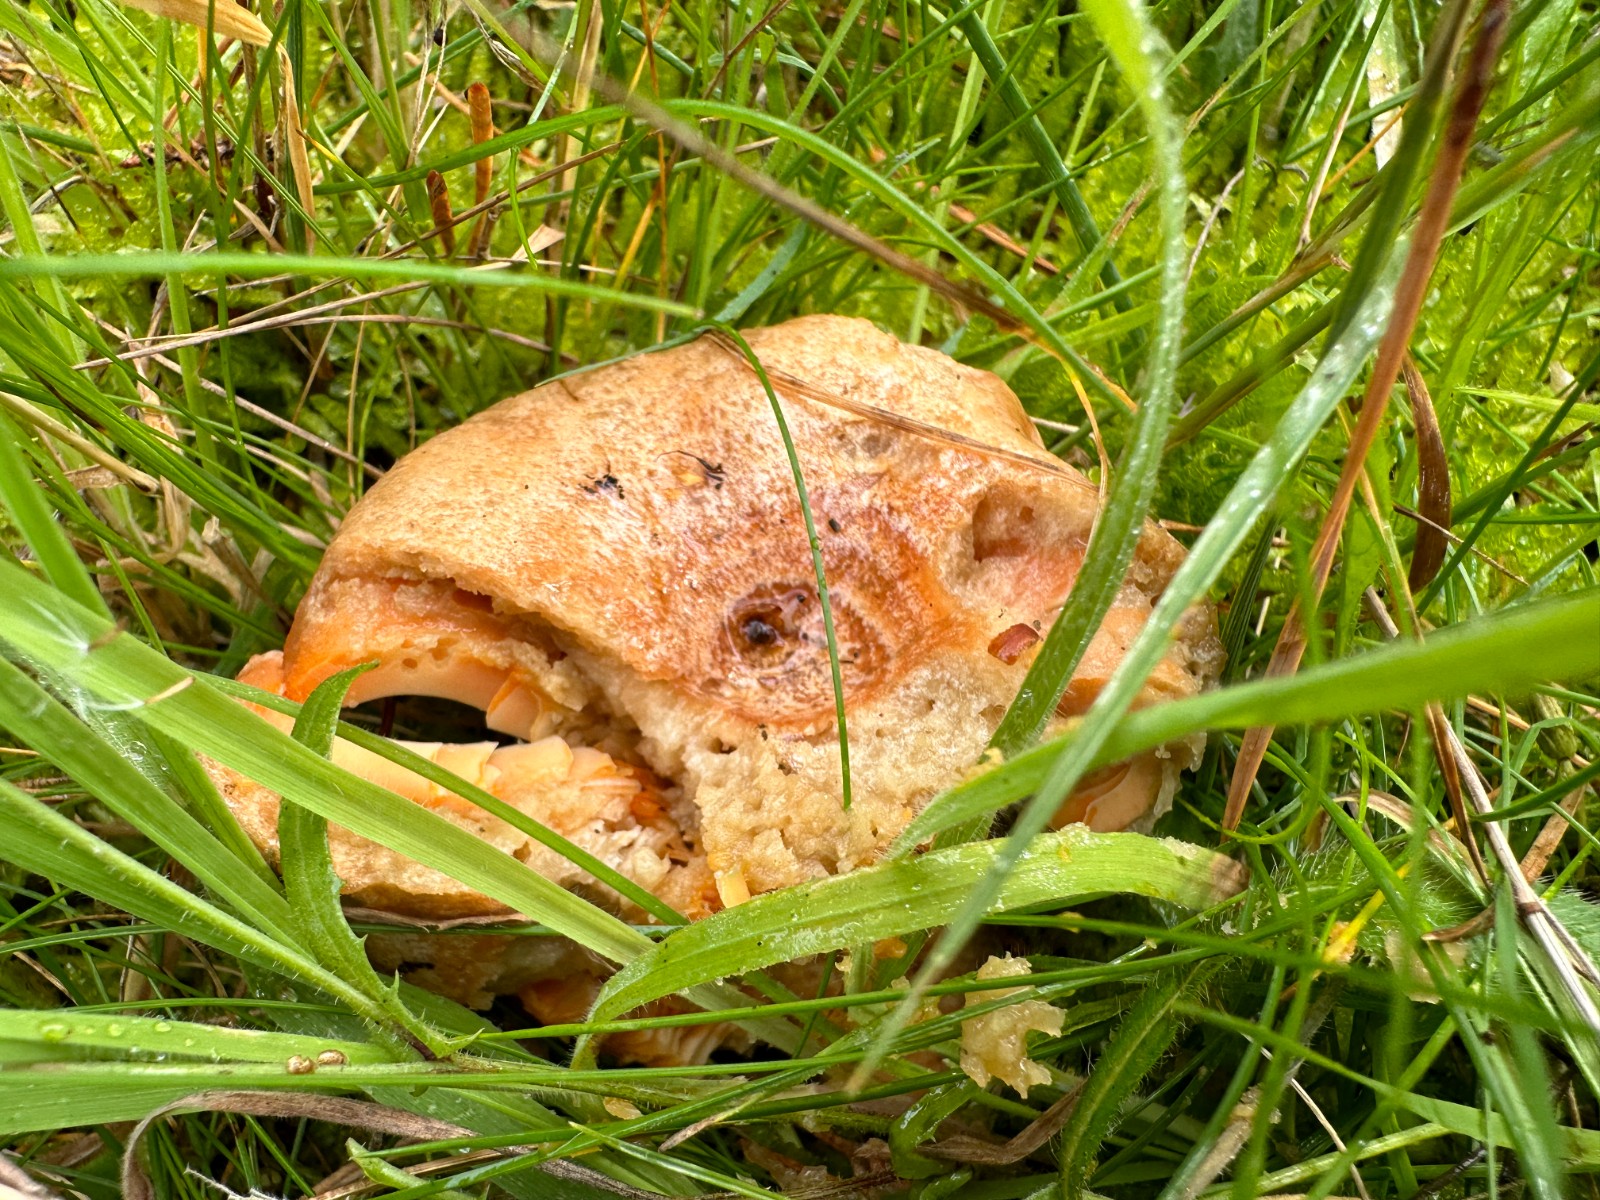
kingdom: Fungi
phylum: Basidiomycota
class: Agaricomycetes
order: Russulales
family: Russulaceae
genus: Lactarius
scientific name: Lactarius deliciosus
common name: velsmagende mælkehat
